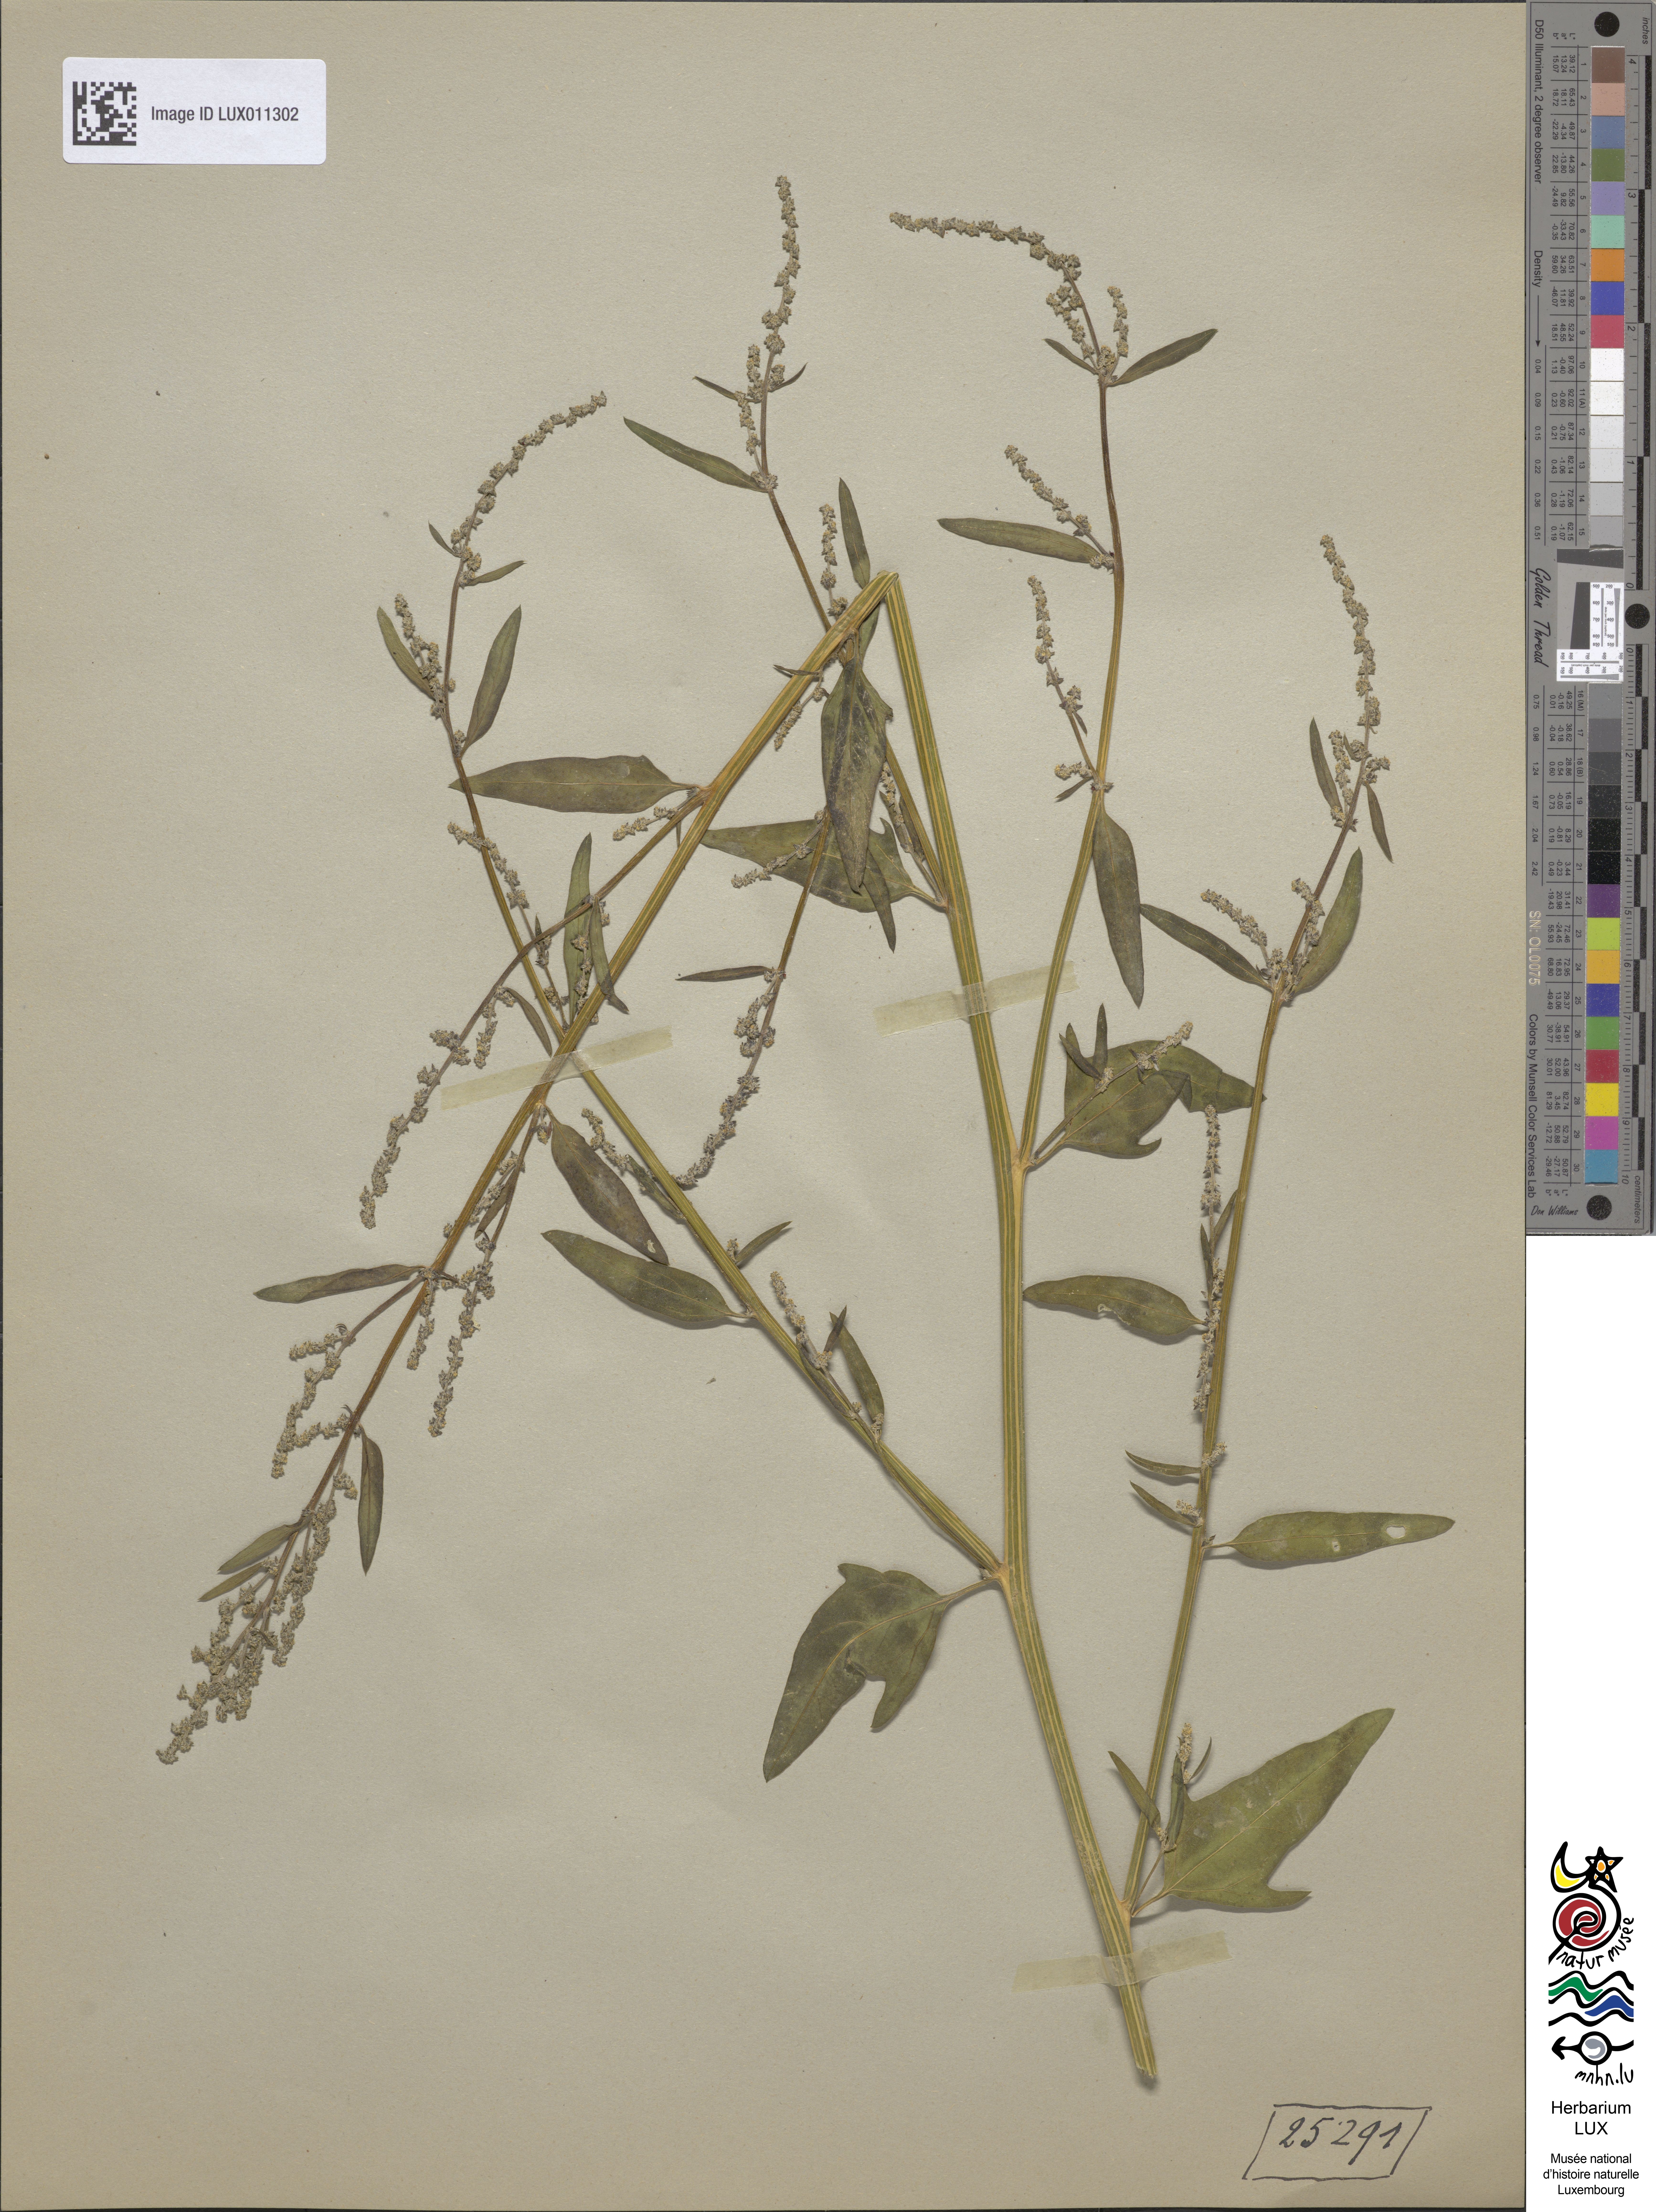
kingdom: Plantae
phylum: Tracheophyta
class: Magnoliopsida
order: Caryophyllales
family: Amaranthaceae
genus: Atriplex
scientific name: Atriplex patula
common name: Common orache
